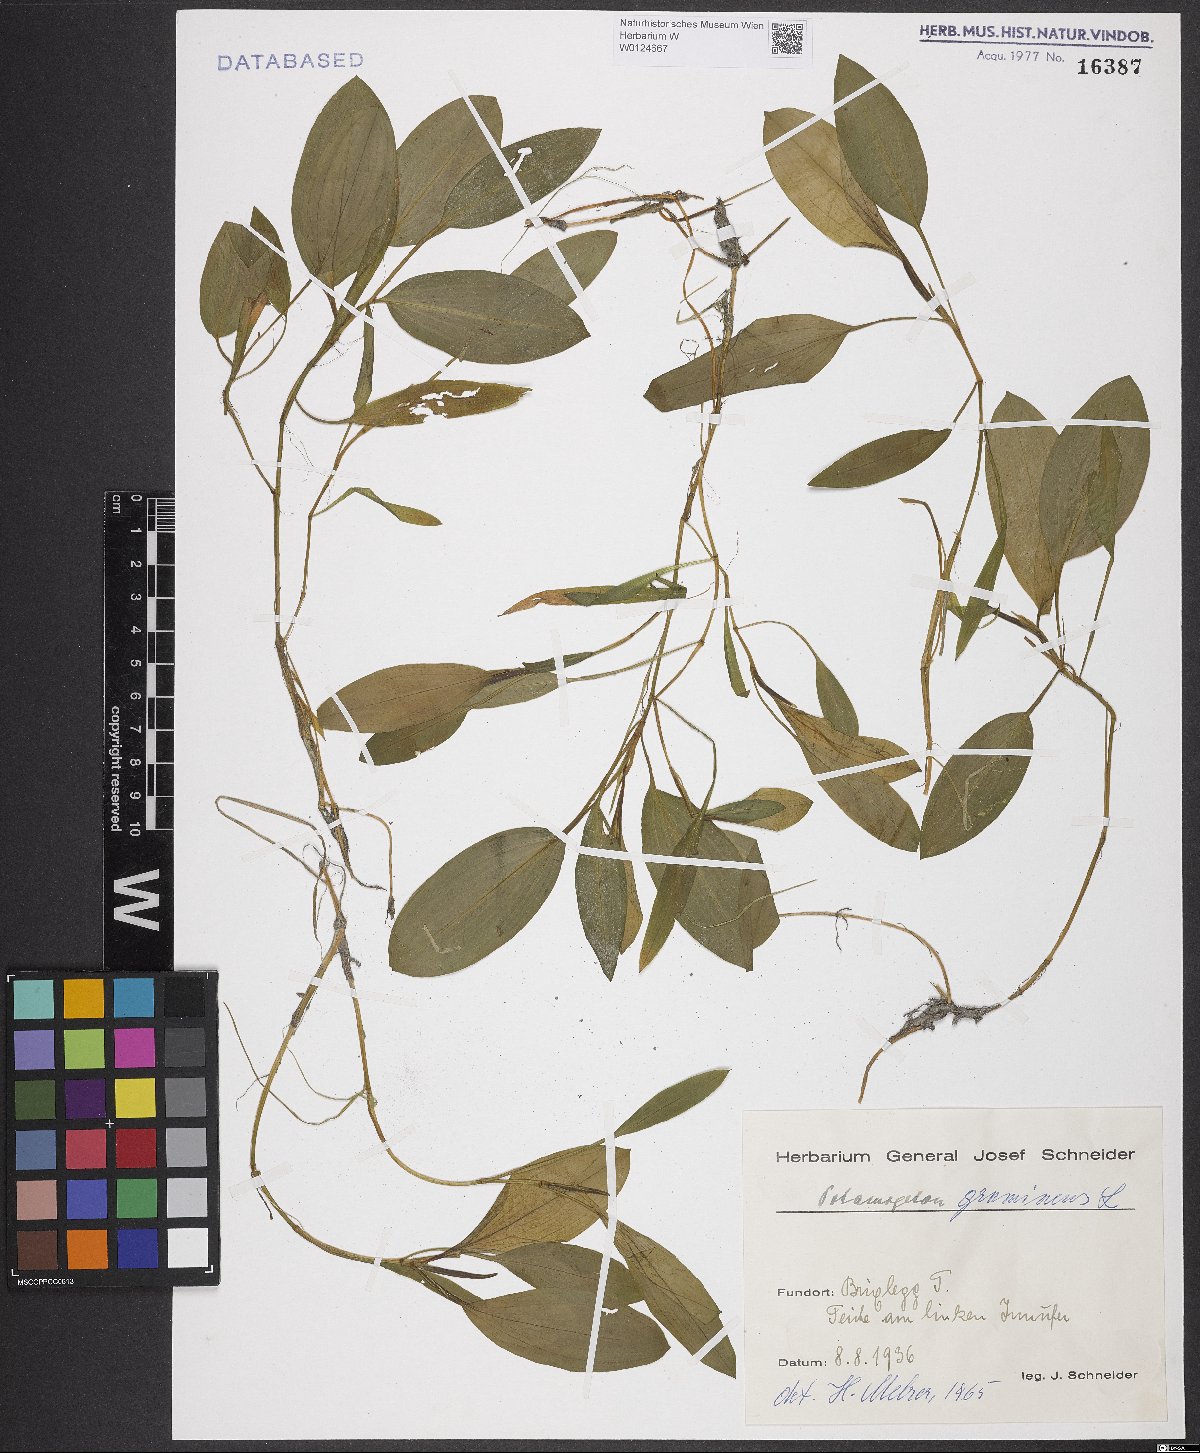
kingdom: Plantae
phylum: Tracheophyta
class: Liliopsida
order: Alismatales
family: Potamogetonaceae
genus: Potamogeton
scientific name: Potamogeton gramineus
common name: Various-leaved pondweed
